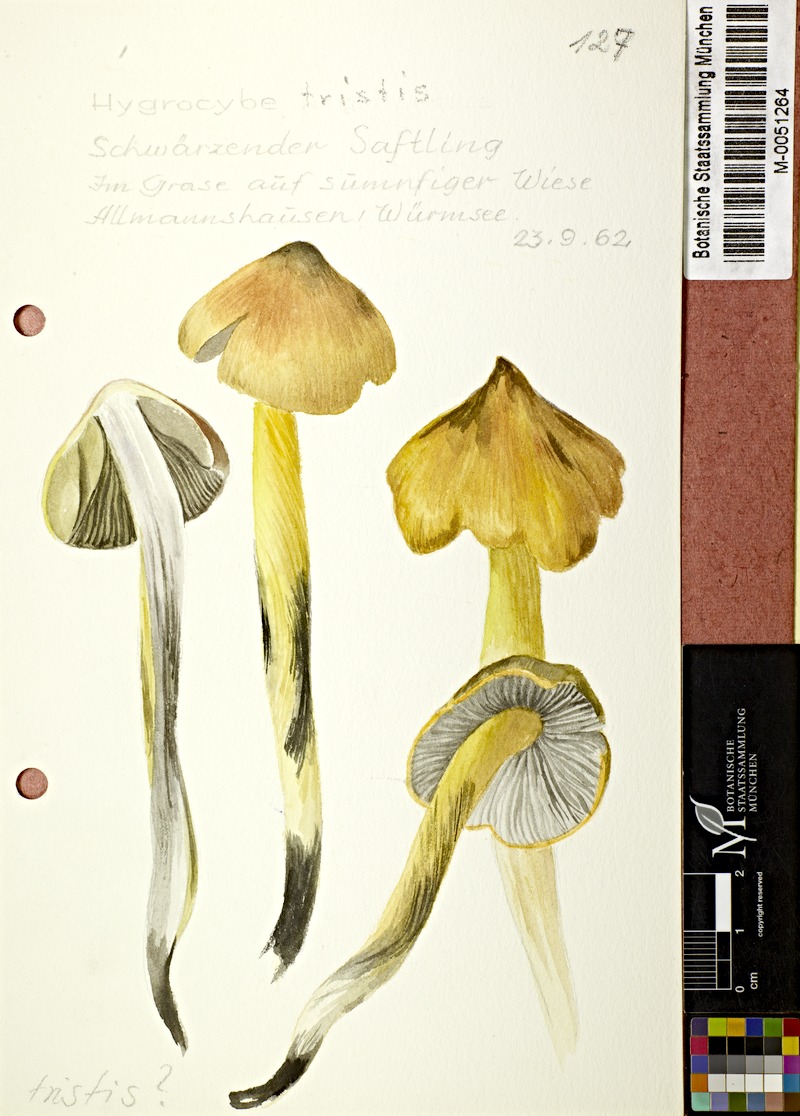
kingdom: Fungi
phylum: Basidiomycota
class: Agaricomycetes
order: Agaricales
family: Hygrophoraceae
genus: Hygrocybe
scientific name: Hygrocybe conica
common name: Blackening wax-cap
